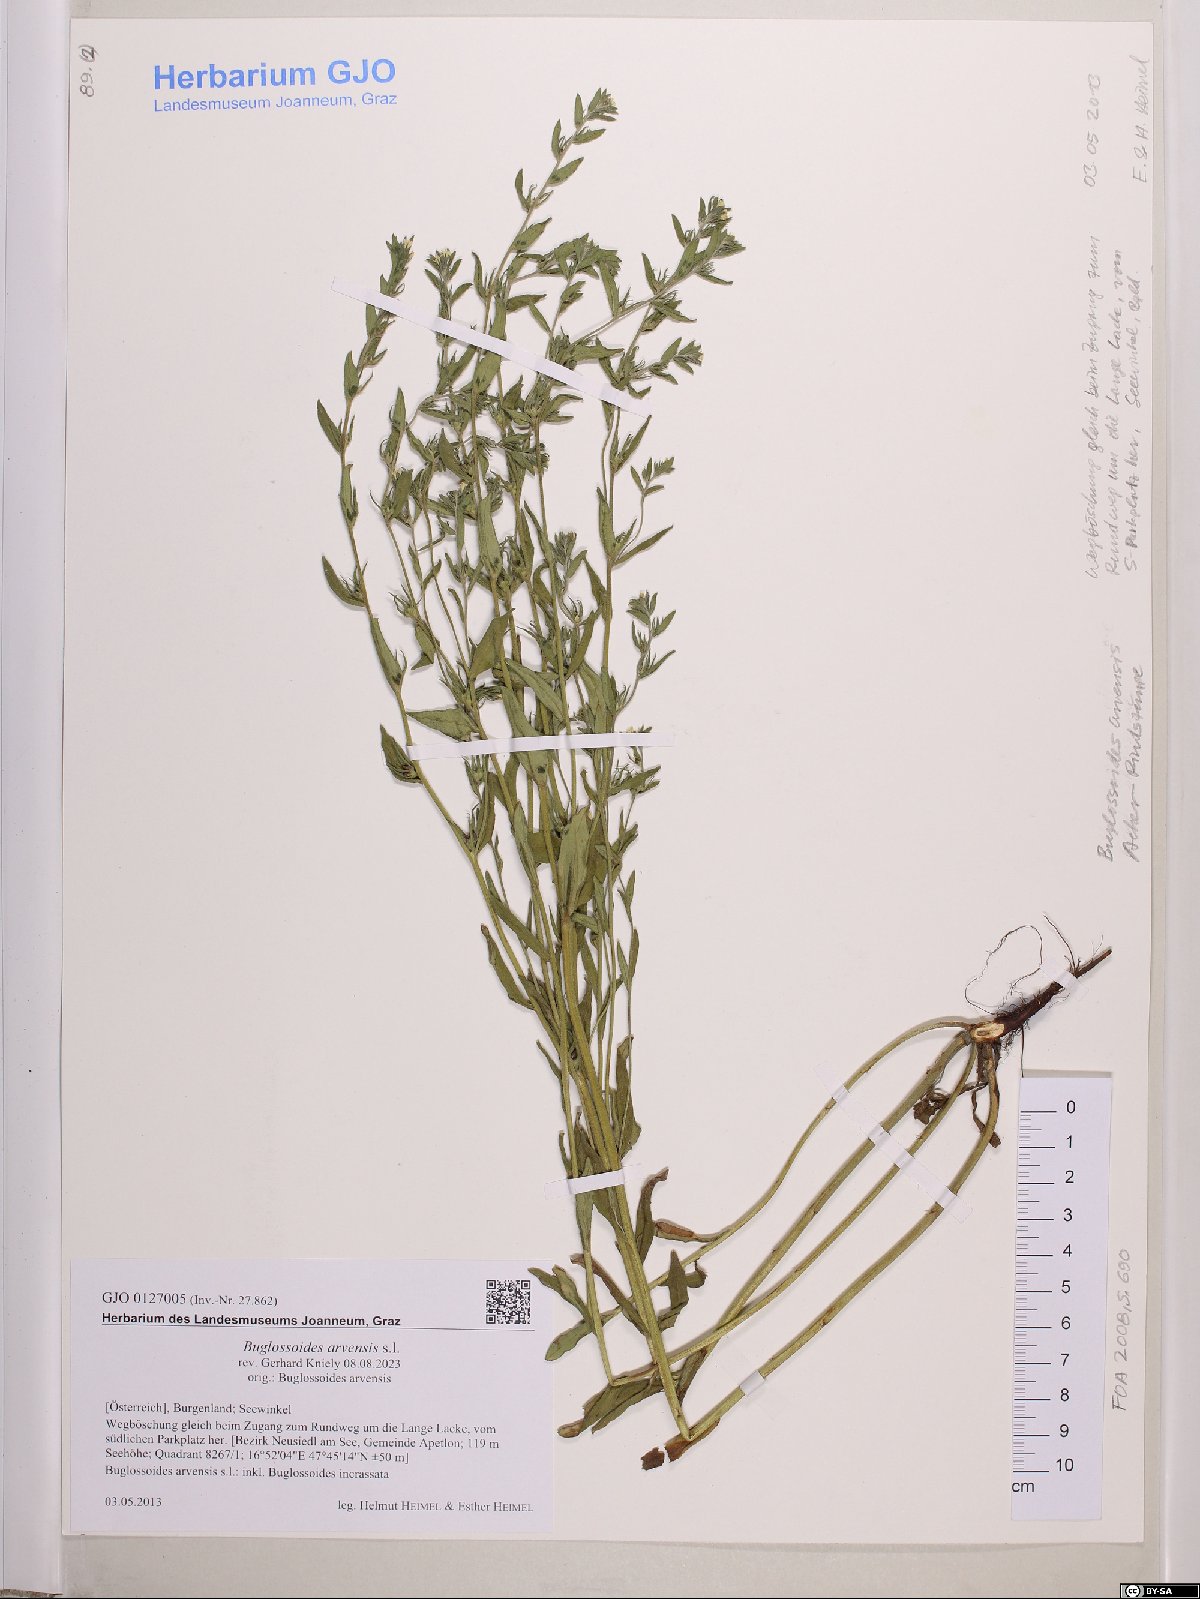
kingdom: Plantae
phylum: Tracheophyta
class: Magnoliopsida
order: Boraginales
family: Boraginaceae
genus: Buglossoides
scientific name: Buglossoides arvensis
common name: Corn gromwell
